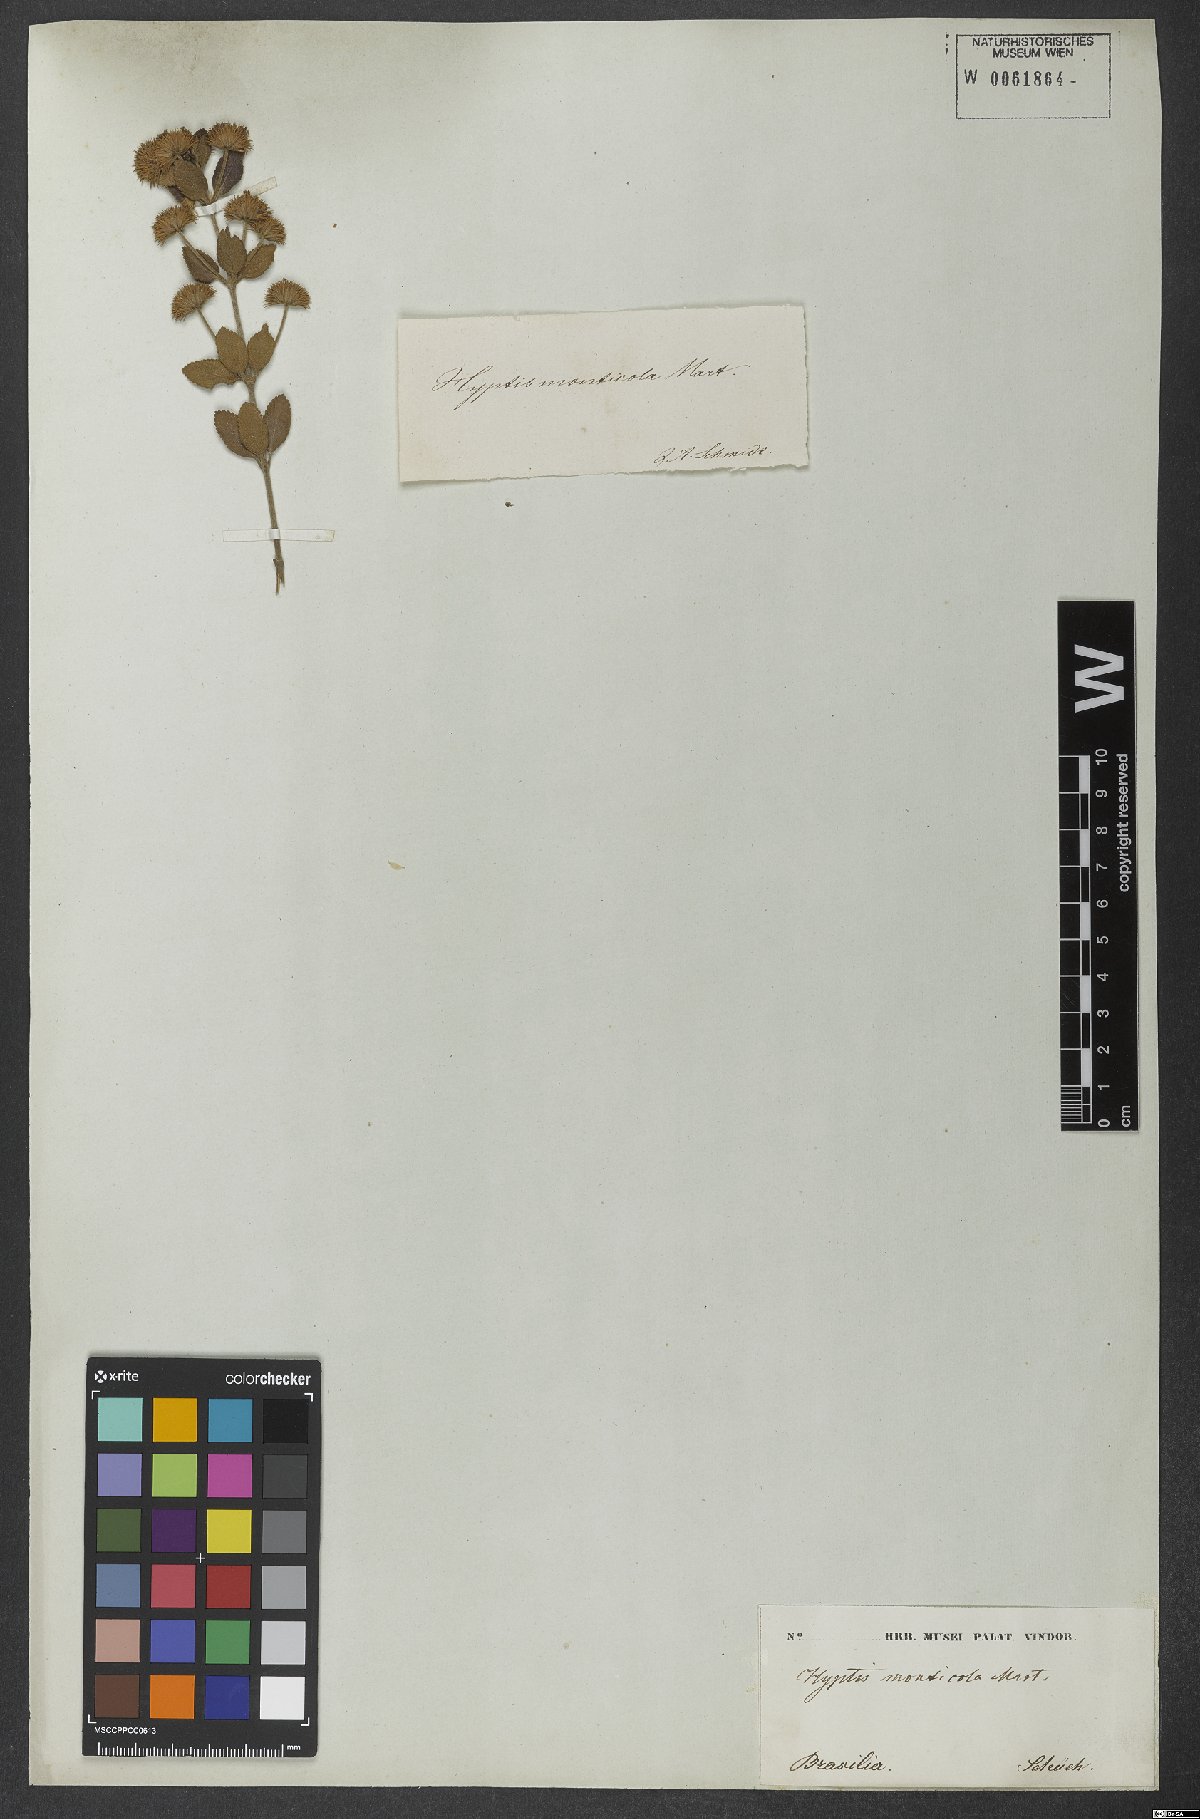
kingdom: Plantae
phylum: Tracheophyta
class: Magnoliopsida
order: Lamiales
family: Lamiaceae
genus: Hyptis
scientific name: Hyptis monticola
